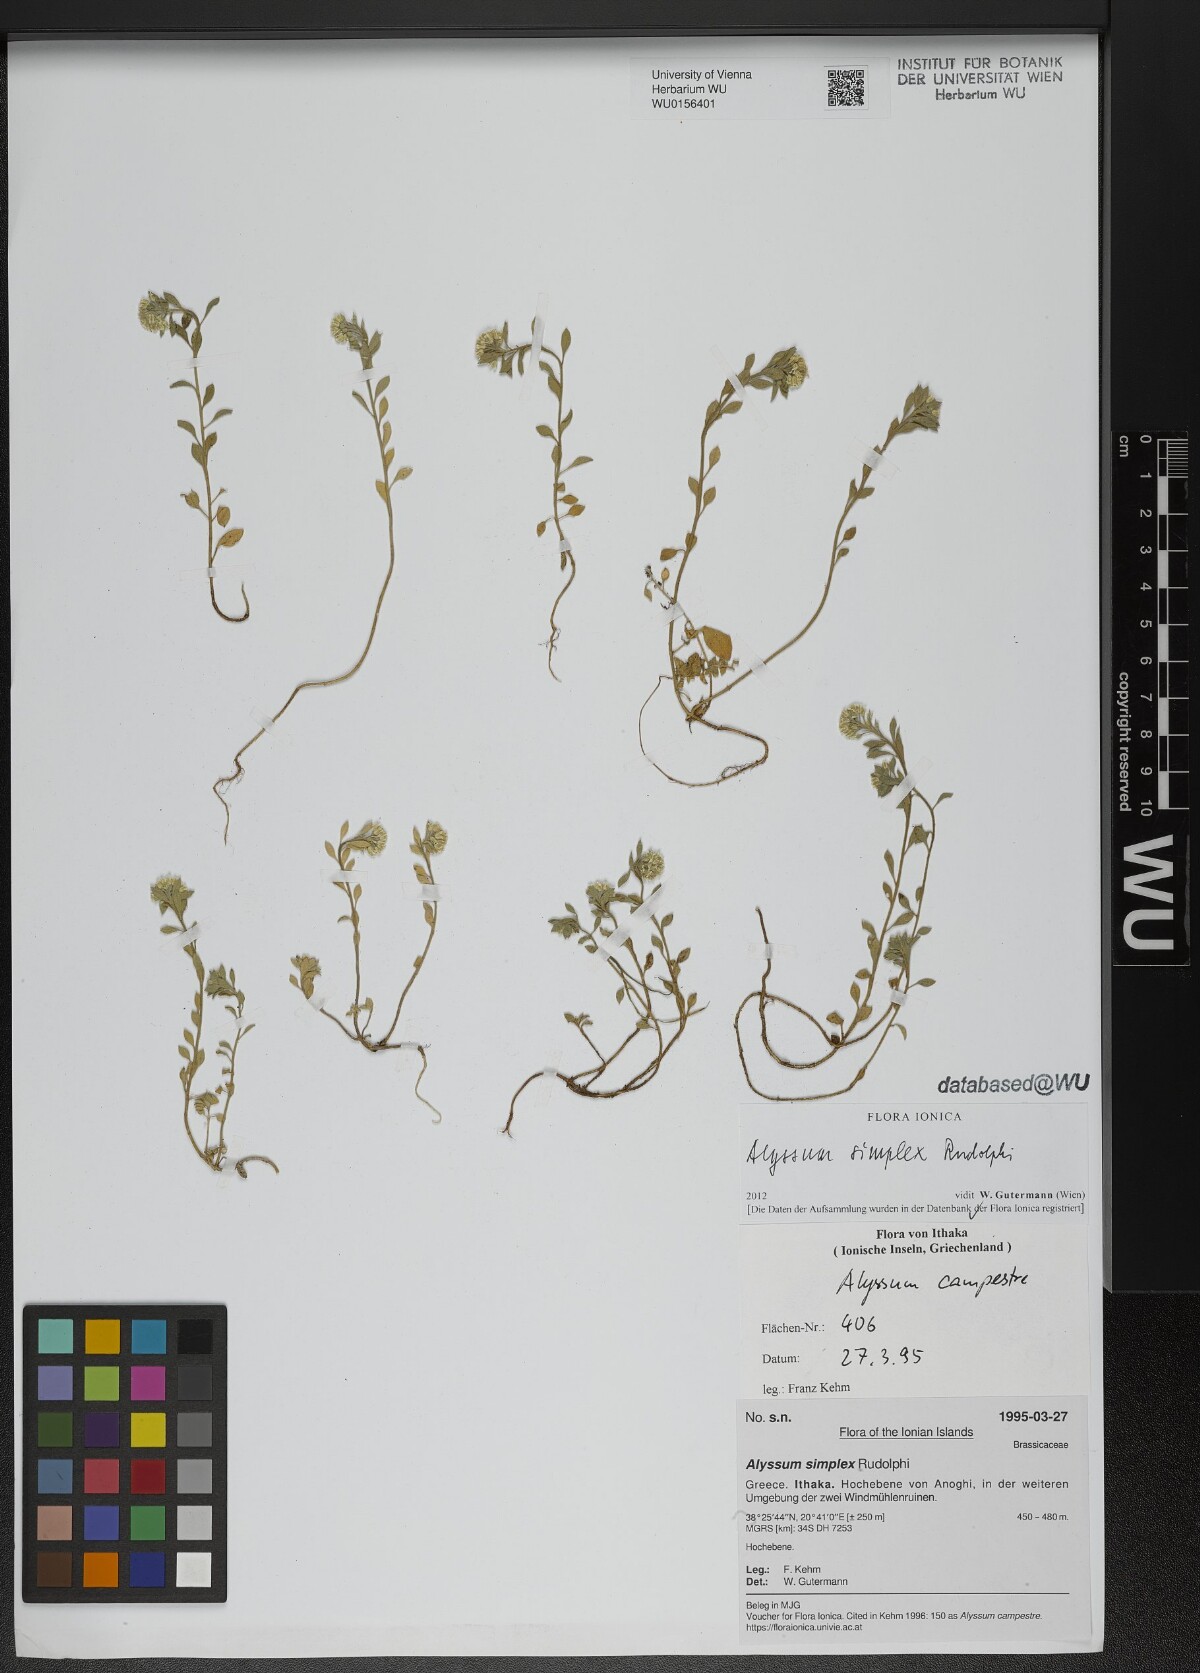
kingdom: Plantae
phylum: Tracheophyta
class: Magnoliopsida
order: Brassicales
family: Brassicaceae
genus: Alyssum
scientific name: Alyssum simplex
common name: Alyssum
